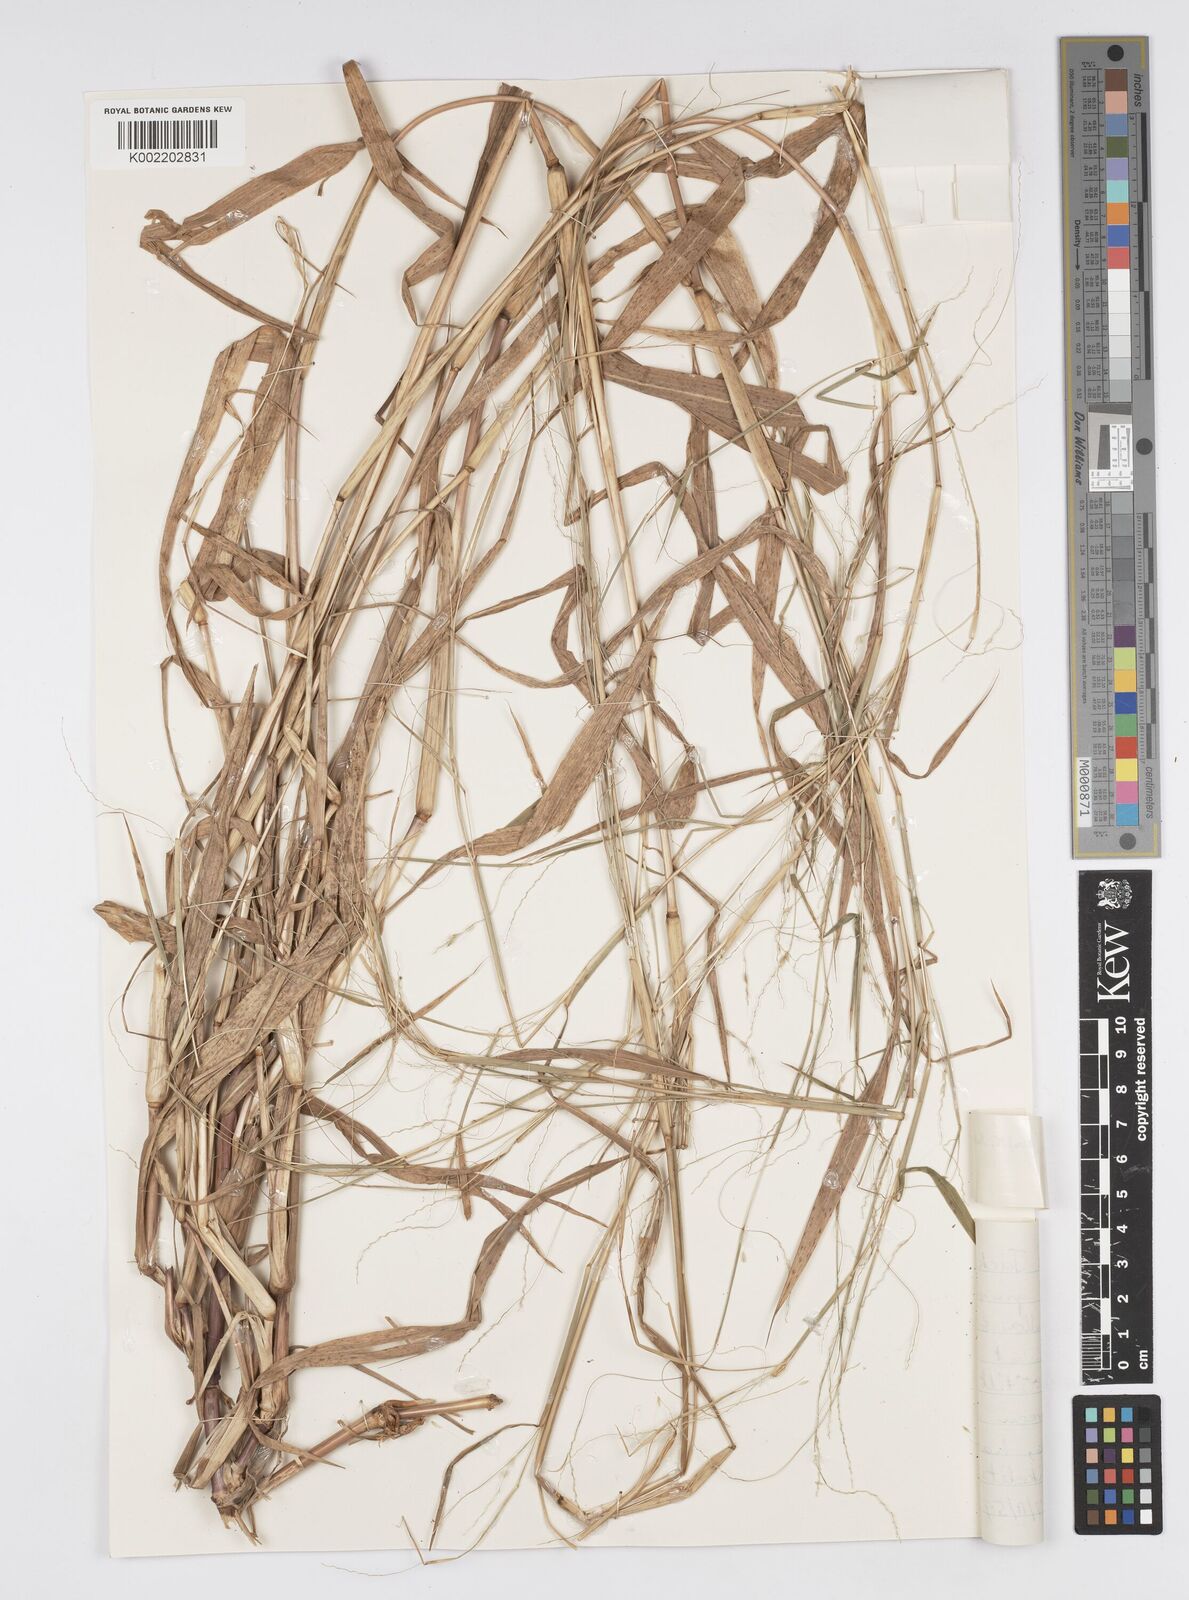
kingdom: Plantae
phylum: Tracheophyta
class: Liliopsida
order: Poales
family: Poaceae
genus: Cenchrus
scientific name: Cenchrus unisetus
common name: Natal grass
